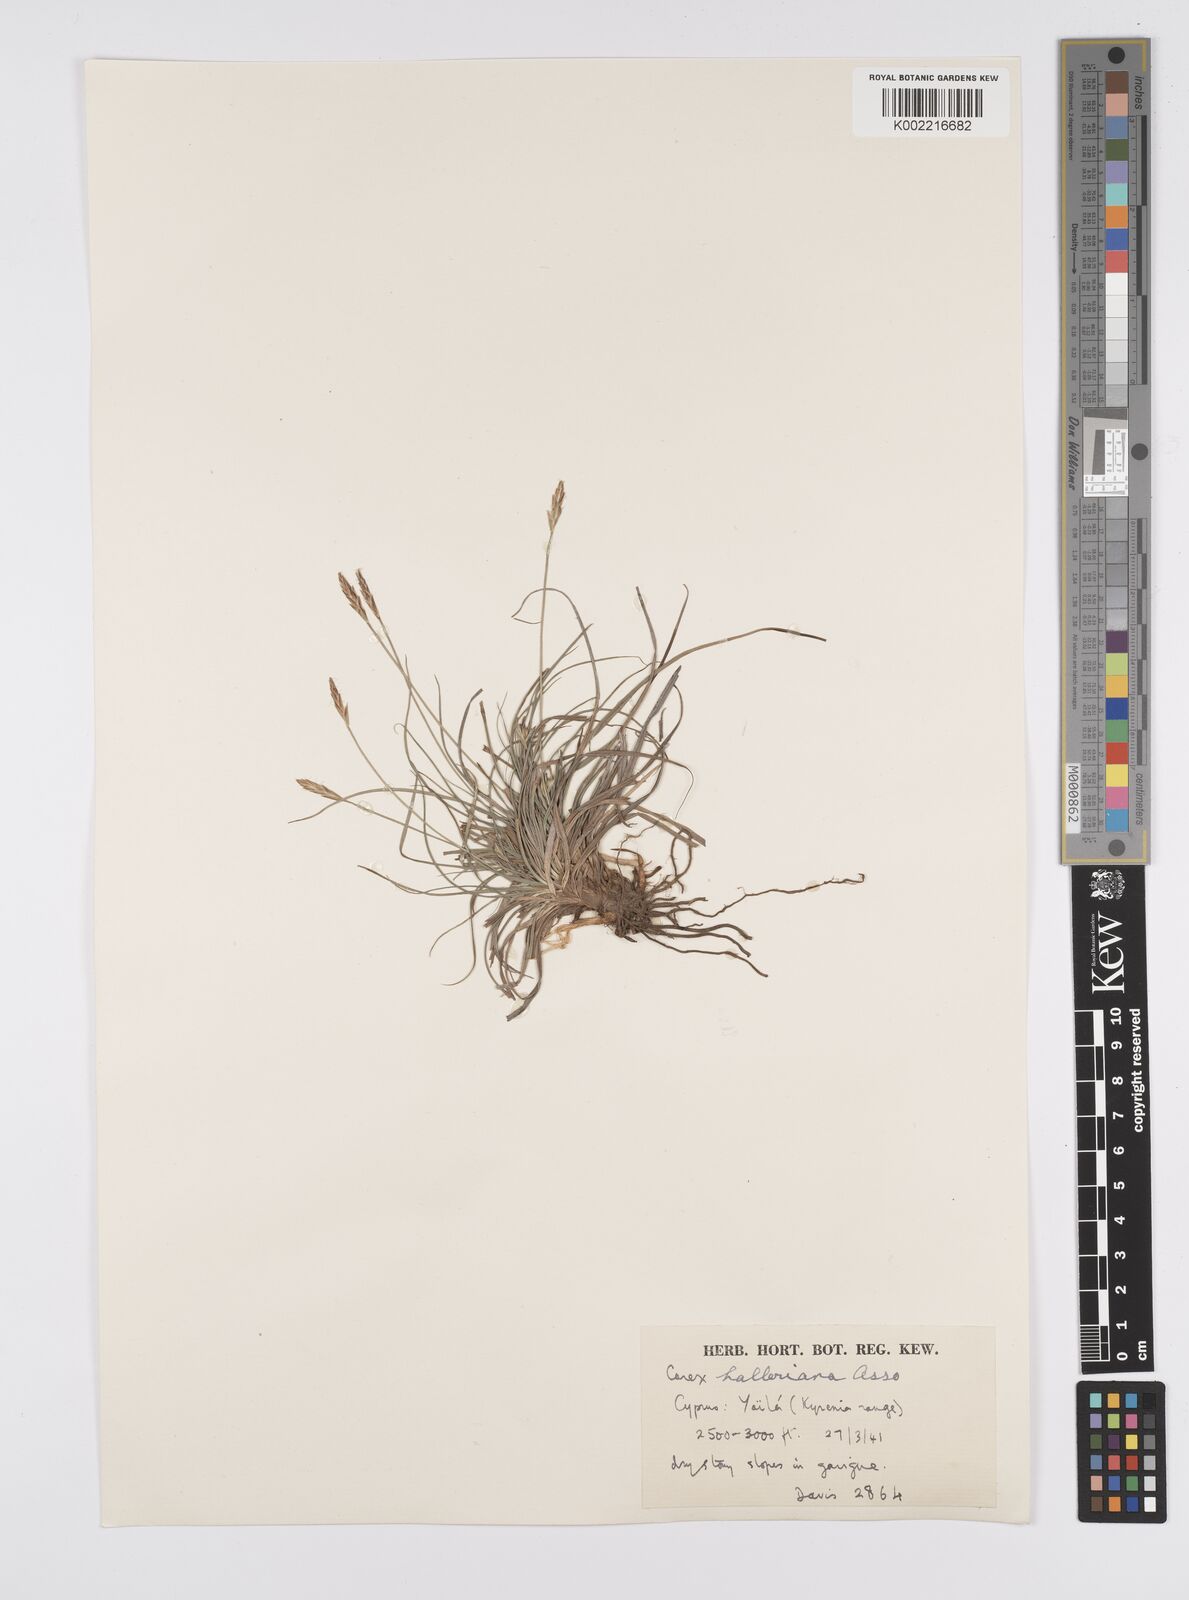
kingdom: Plantae
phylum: Tracheophyta
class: Liliopsida
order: Poales
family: Cyperaceae
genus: Carex
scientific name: Carex halleriana
